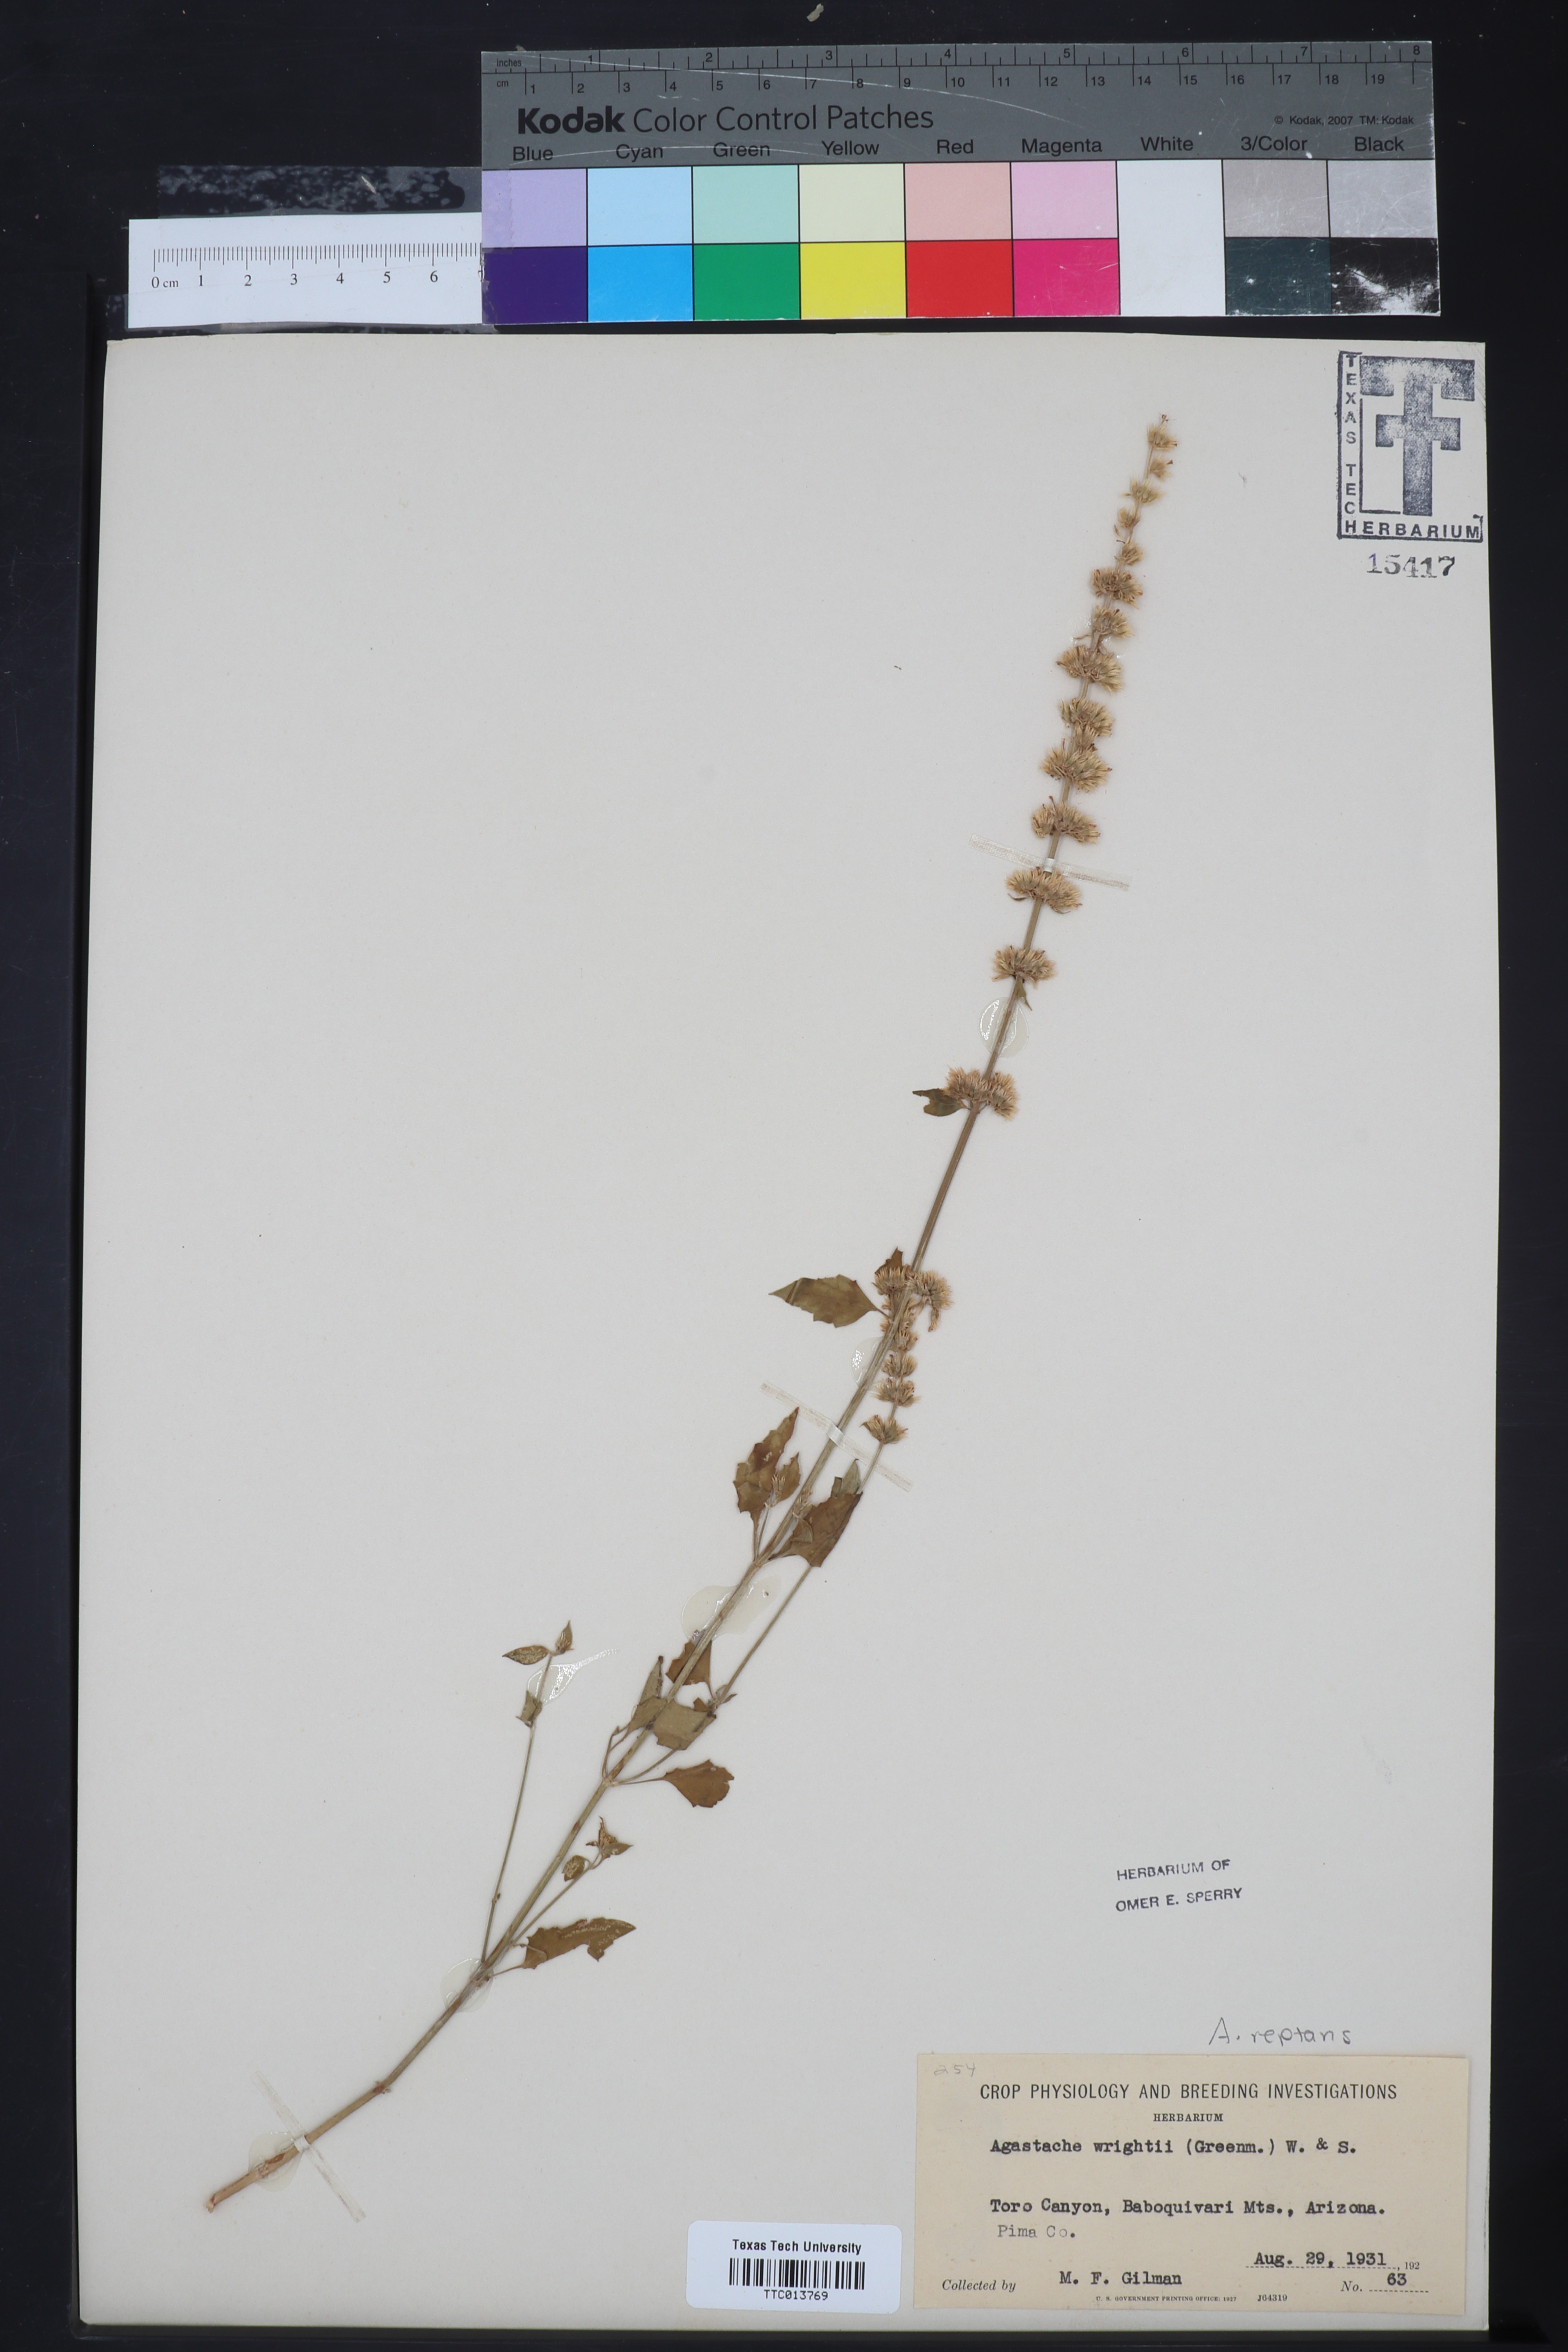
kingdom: Plantae
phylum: Tracheophyta
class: Magnoliopsida
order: Lamiales
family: Lamiaceae
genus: Agastache
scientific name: Agastache wrightii
